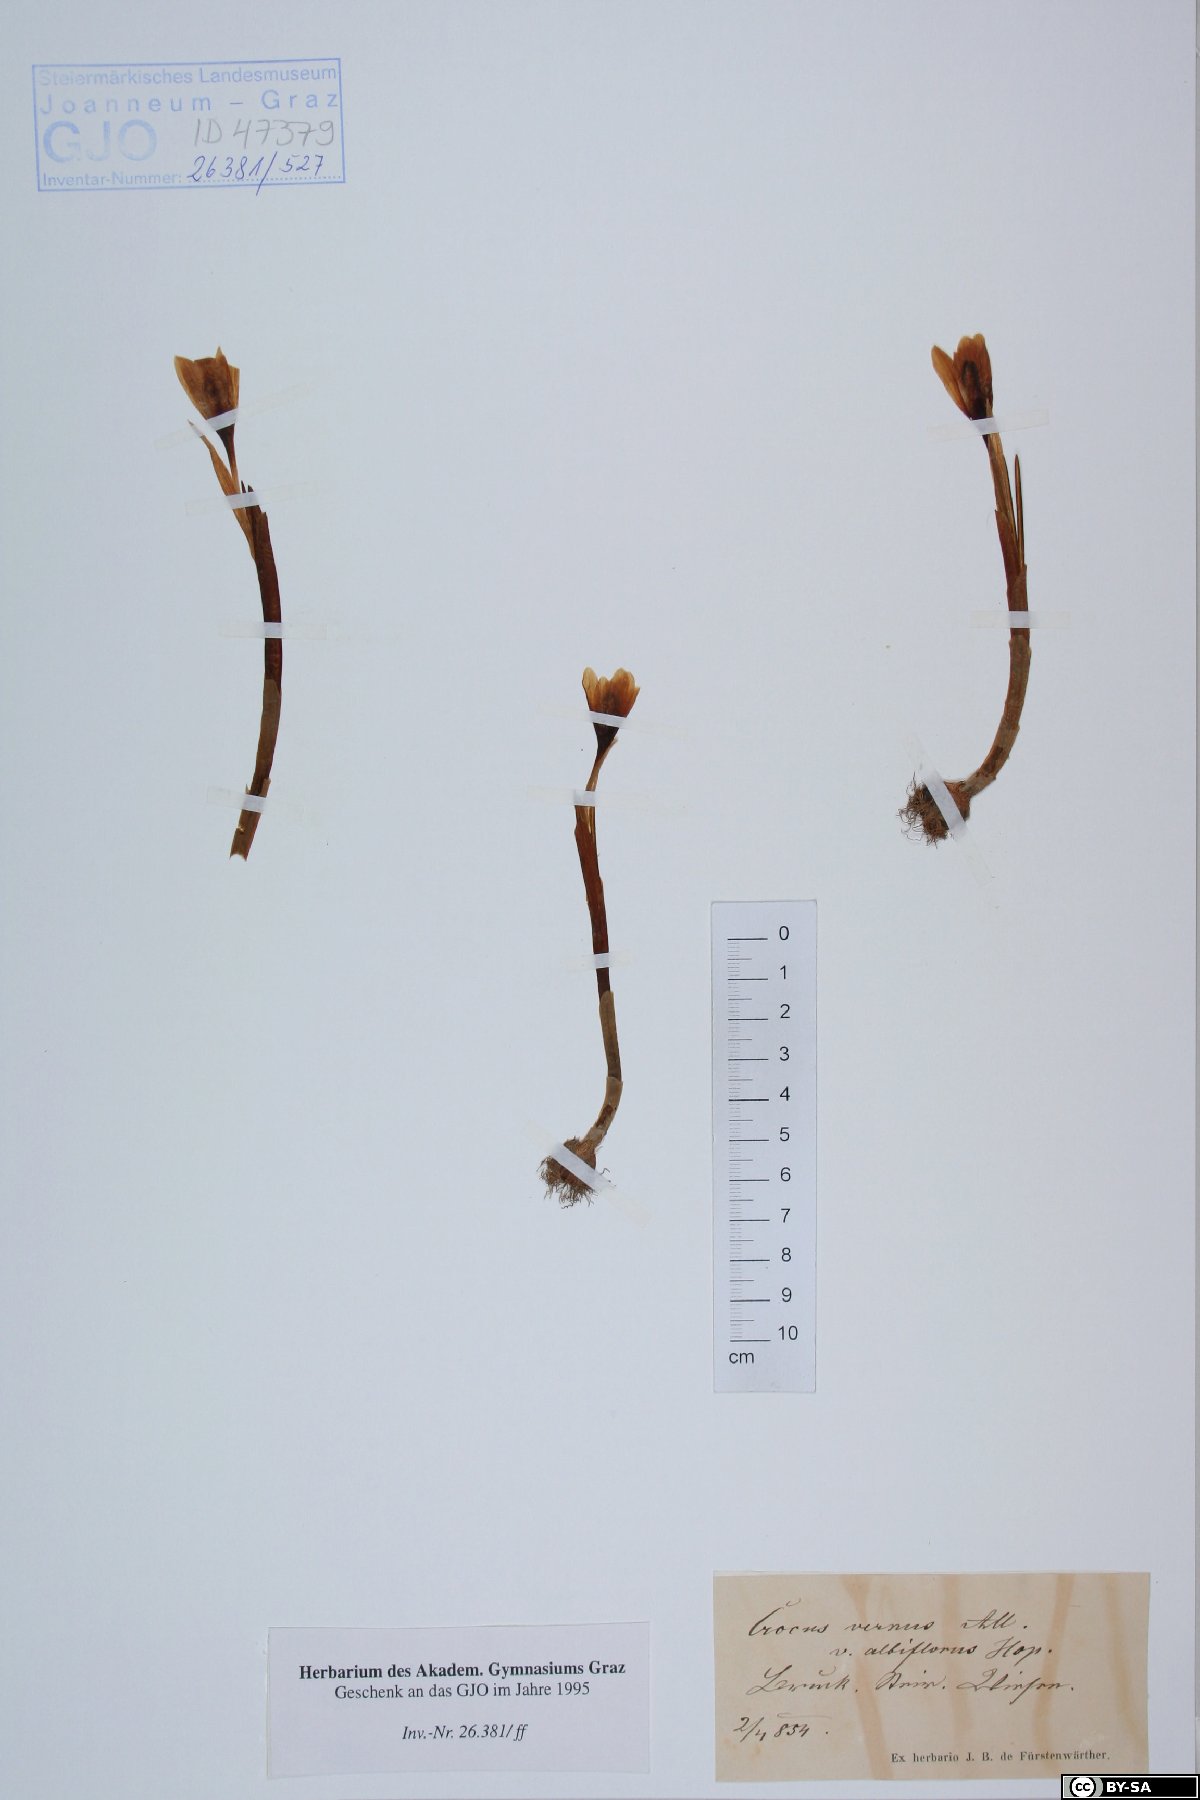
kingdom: Plantae
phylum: Tracheophyta
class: Liliopsida
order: Asparagales
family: Iridaceae
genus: Crocus
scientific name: Crocus vernus
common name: Spring crocus
